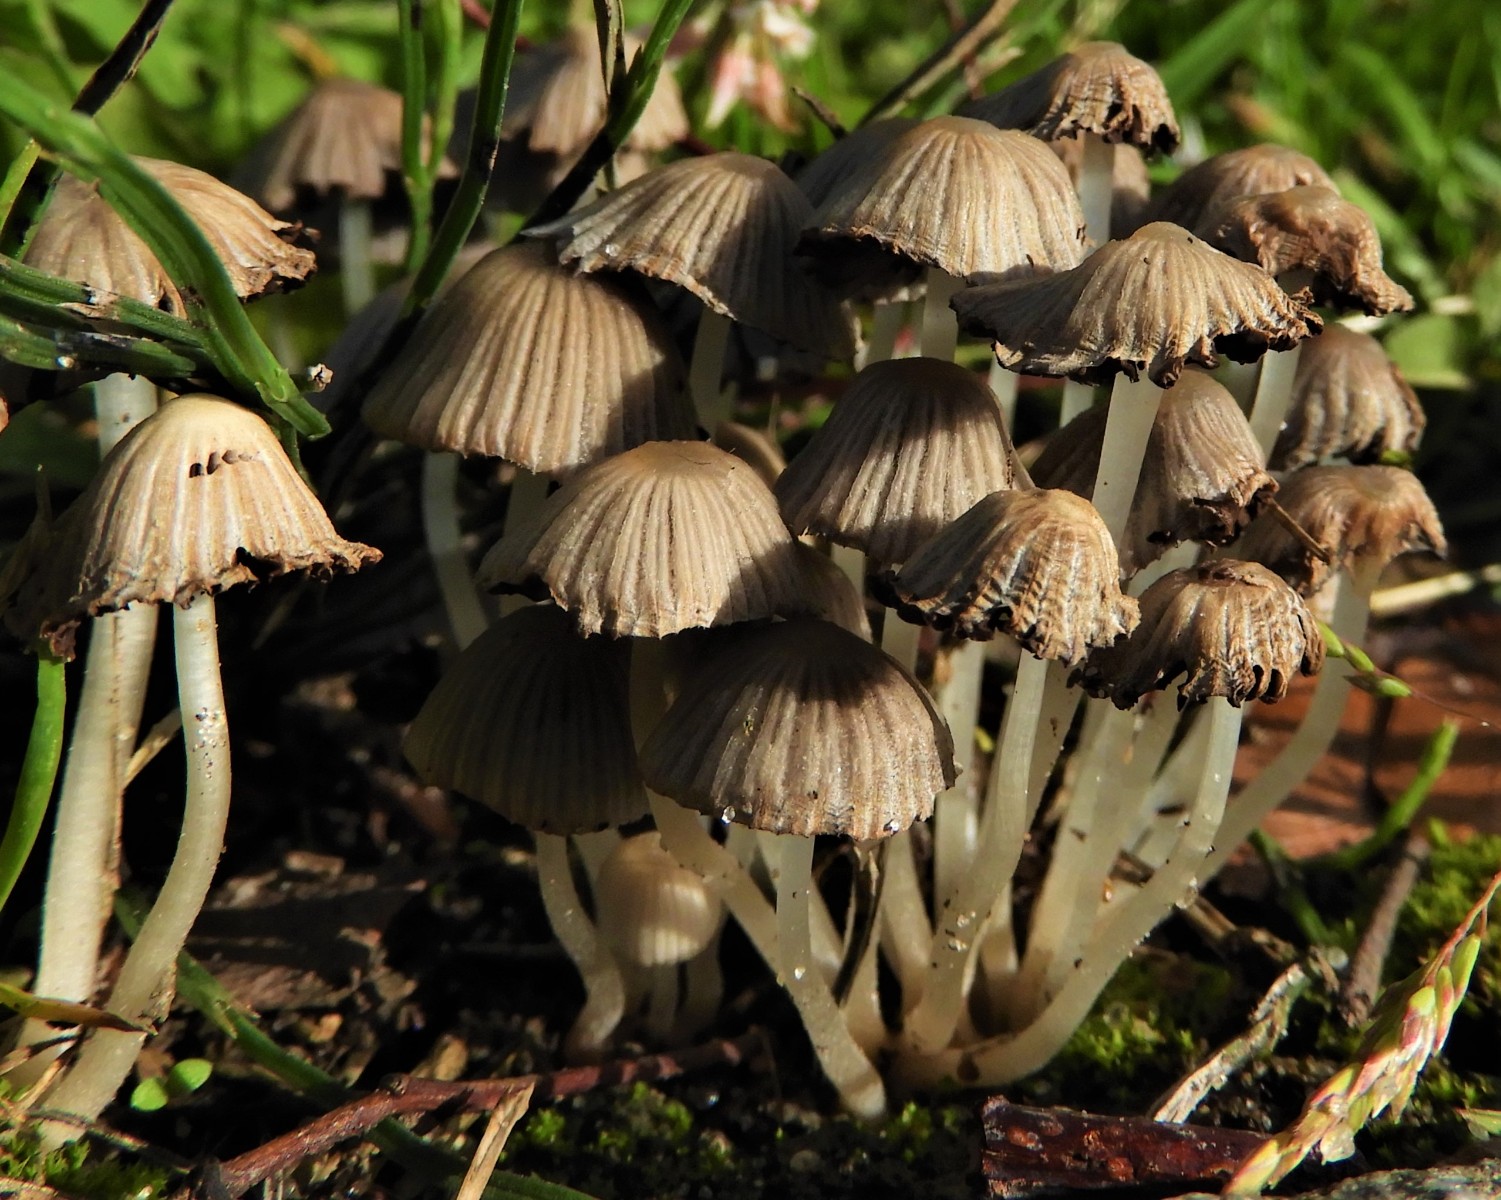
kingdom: Fungi
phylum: Basidiomycota
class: Agaricomycetes
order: Agaricales
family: Psathyrellaceae
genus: Coprinellus
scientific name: Coprinellus disseminatus
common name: bredsået blækhat
